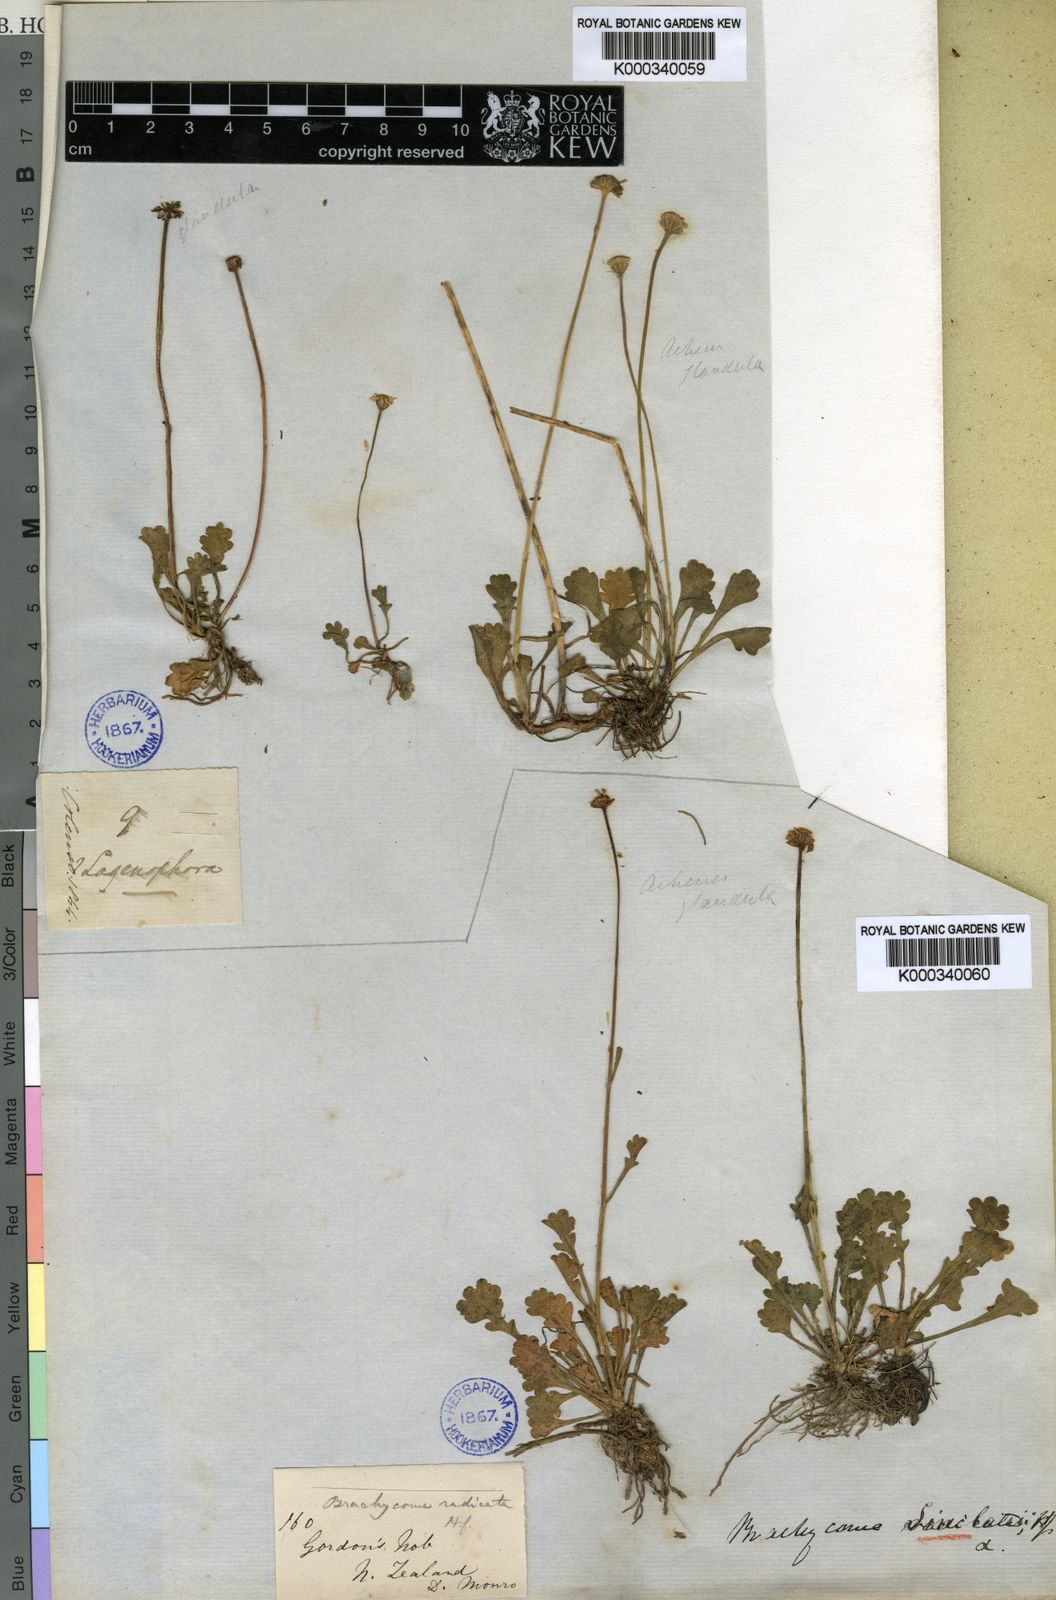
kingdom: Plantae
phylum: Tracheophyta
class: Magnoliopsida
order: Asterales
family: Asteraceae
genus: Brachyscome
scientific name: Brachyscome sinclairii
